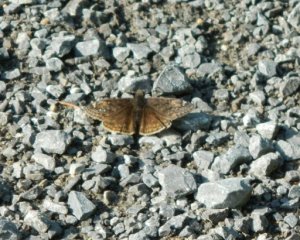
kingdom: Animalia
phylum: Arthropoda
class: Insecta
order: Lepidoptera
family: Hesperiidae
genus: Gesta
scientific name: Gesta
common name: Columbine Duskywing
